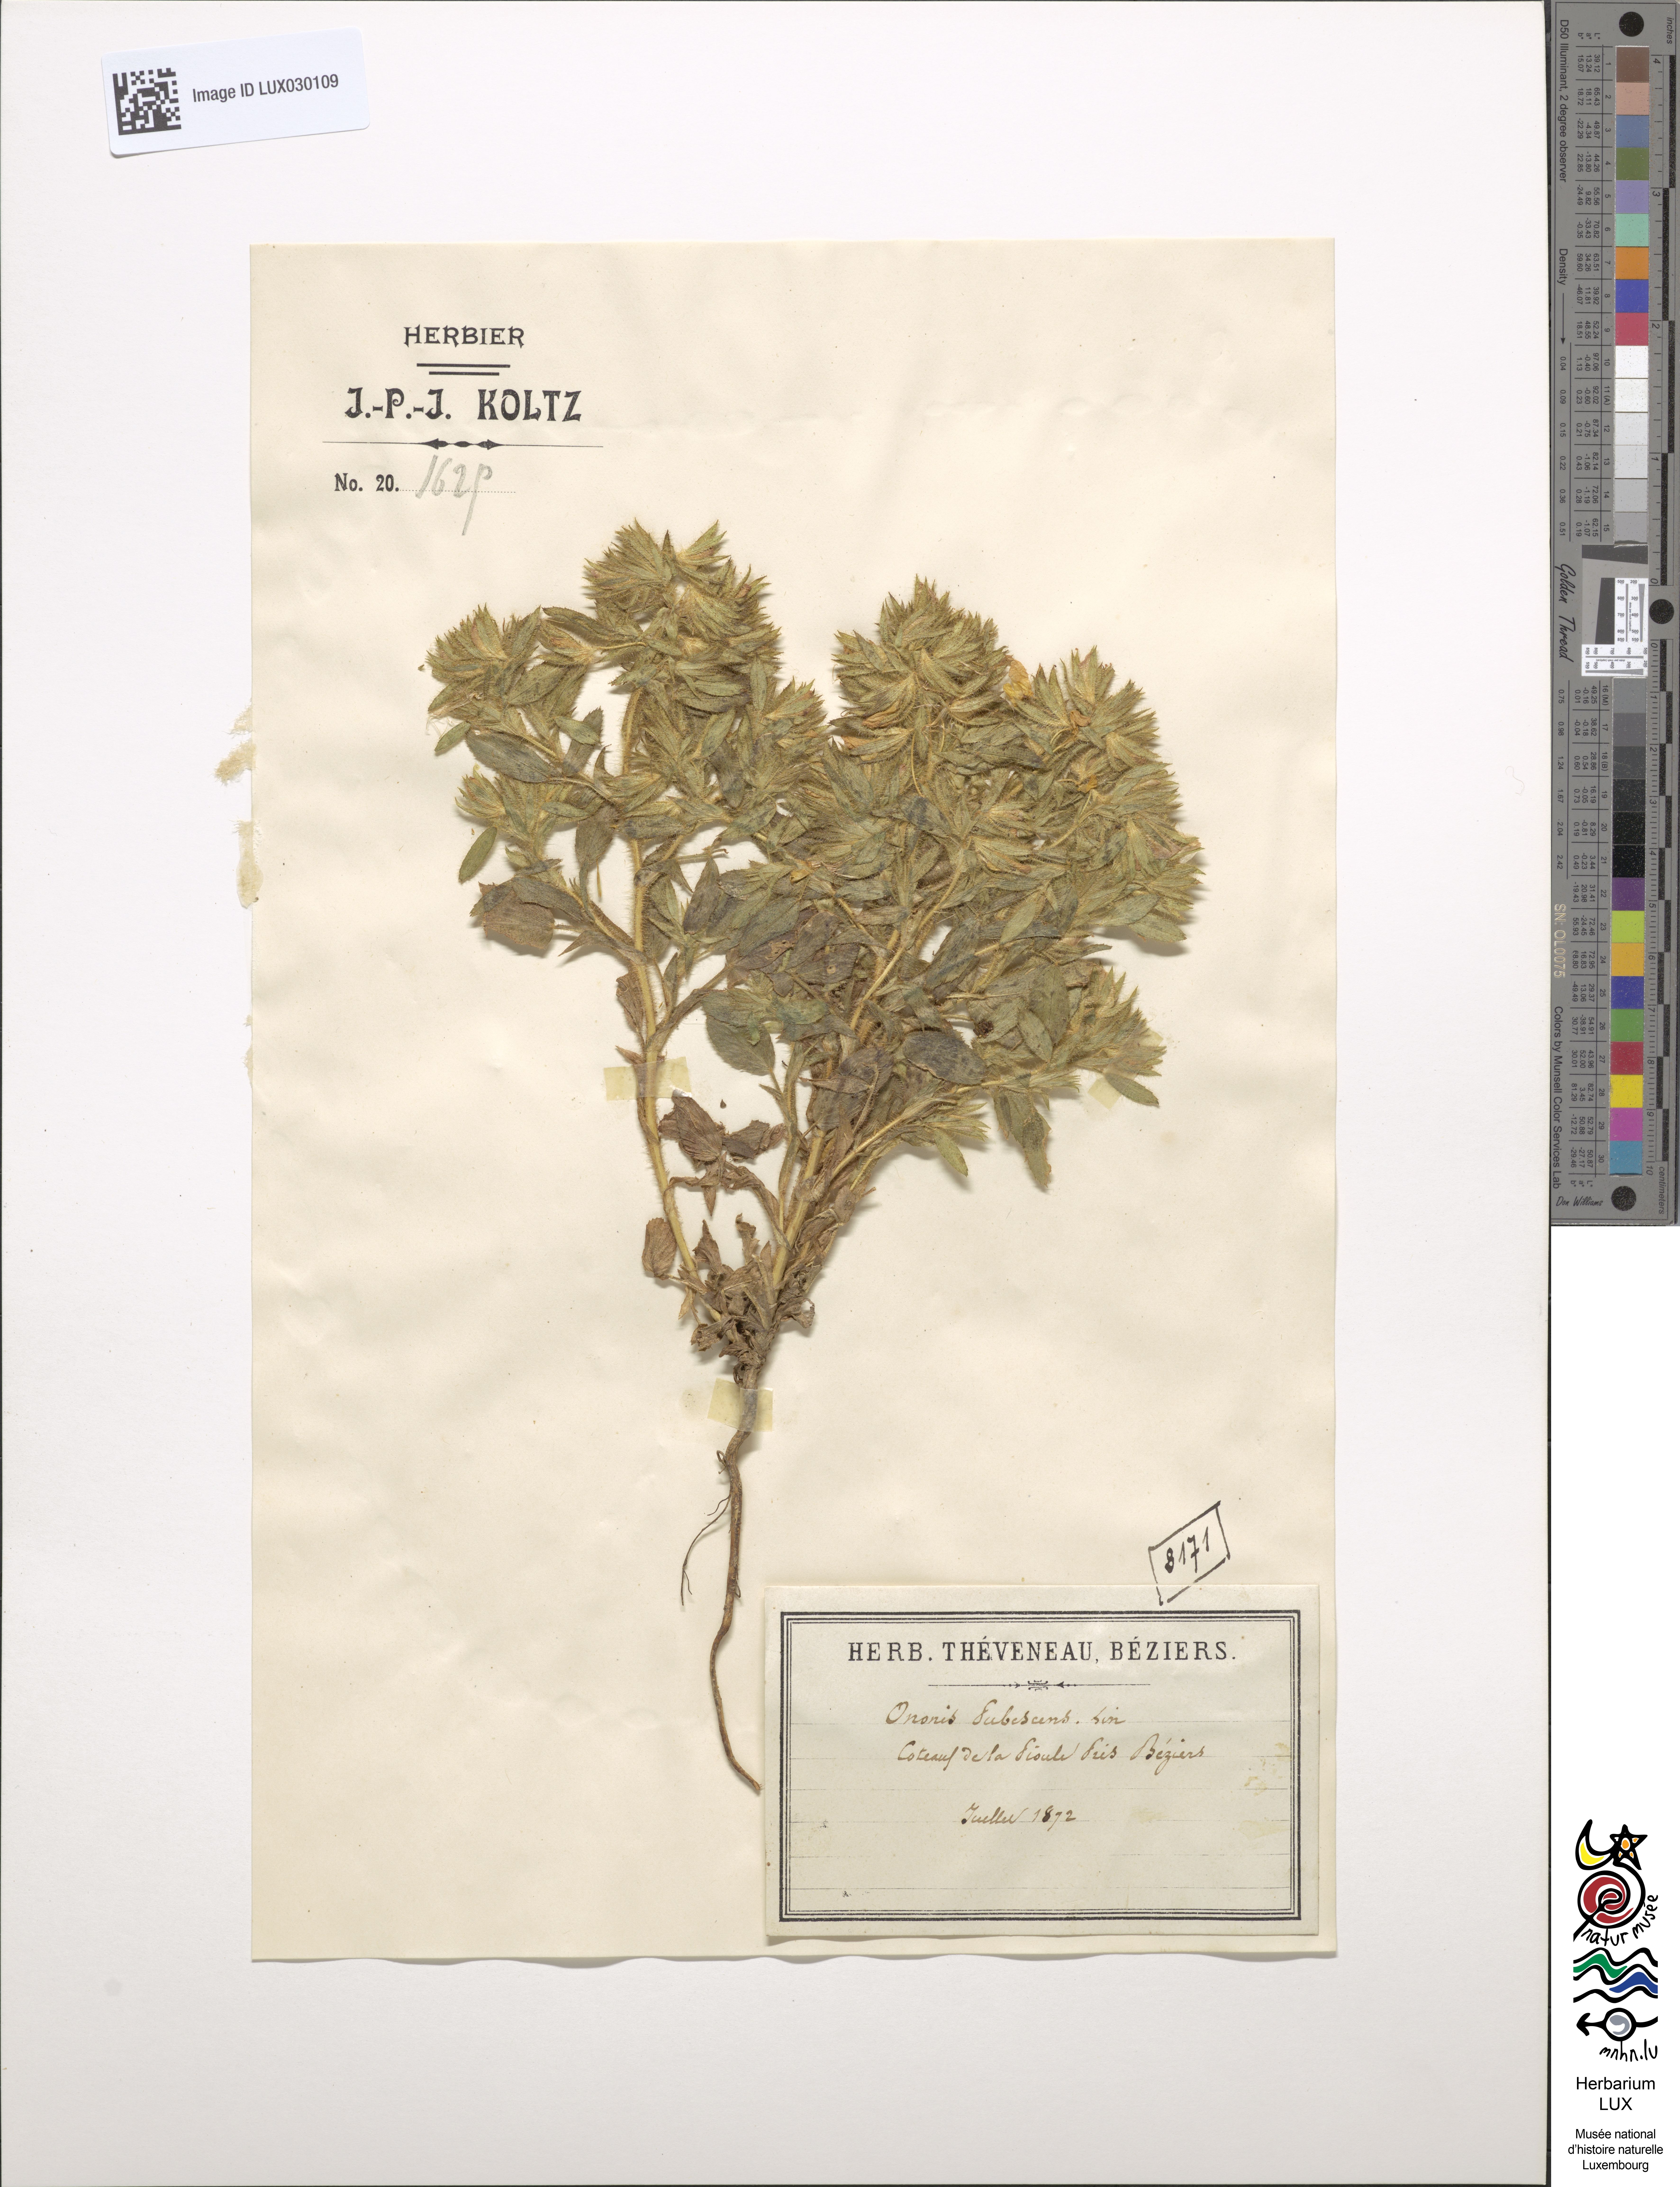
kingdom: Plantae
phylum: Tracheophyta
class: Magnoliopsida
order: Fabales
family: Fabaceae
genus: Ononis
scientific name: Ononis pubescens
